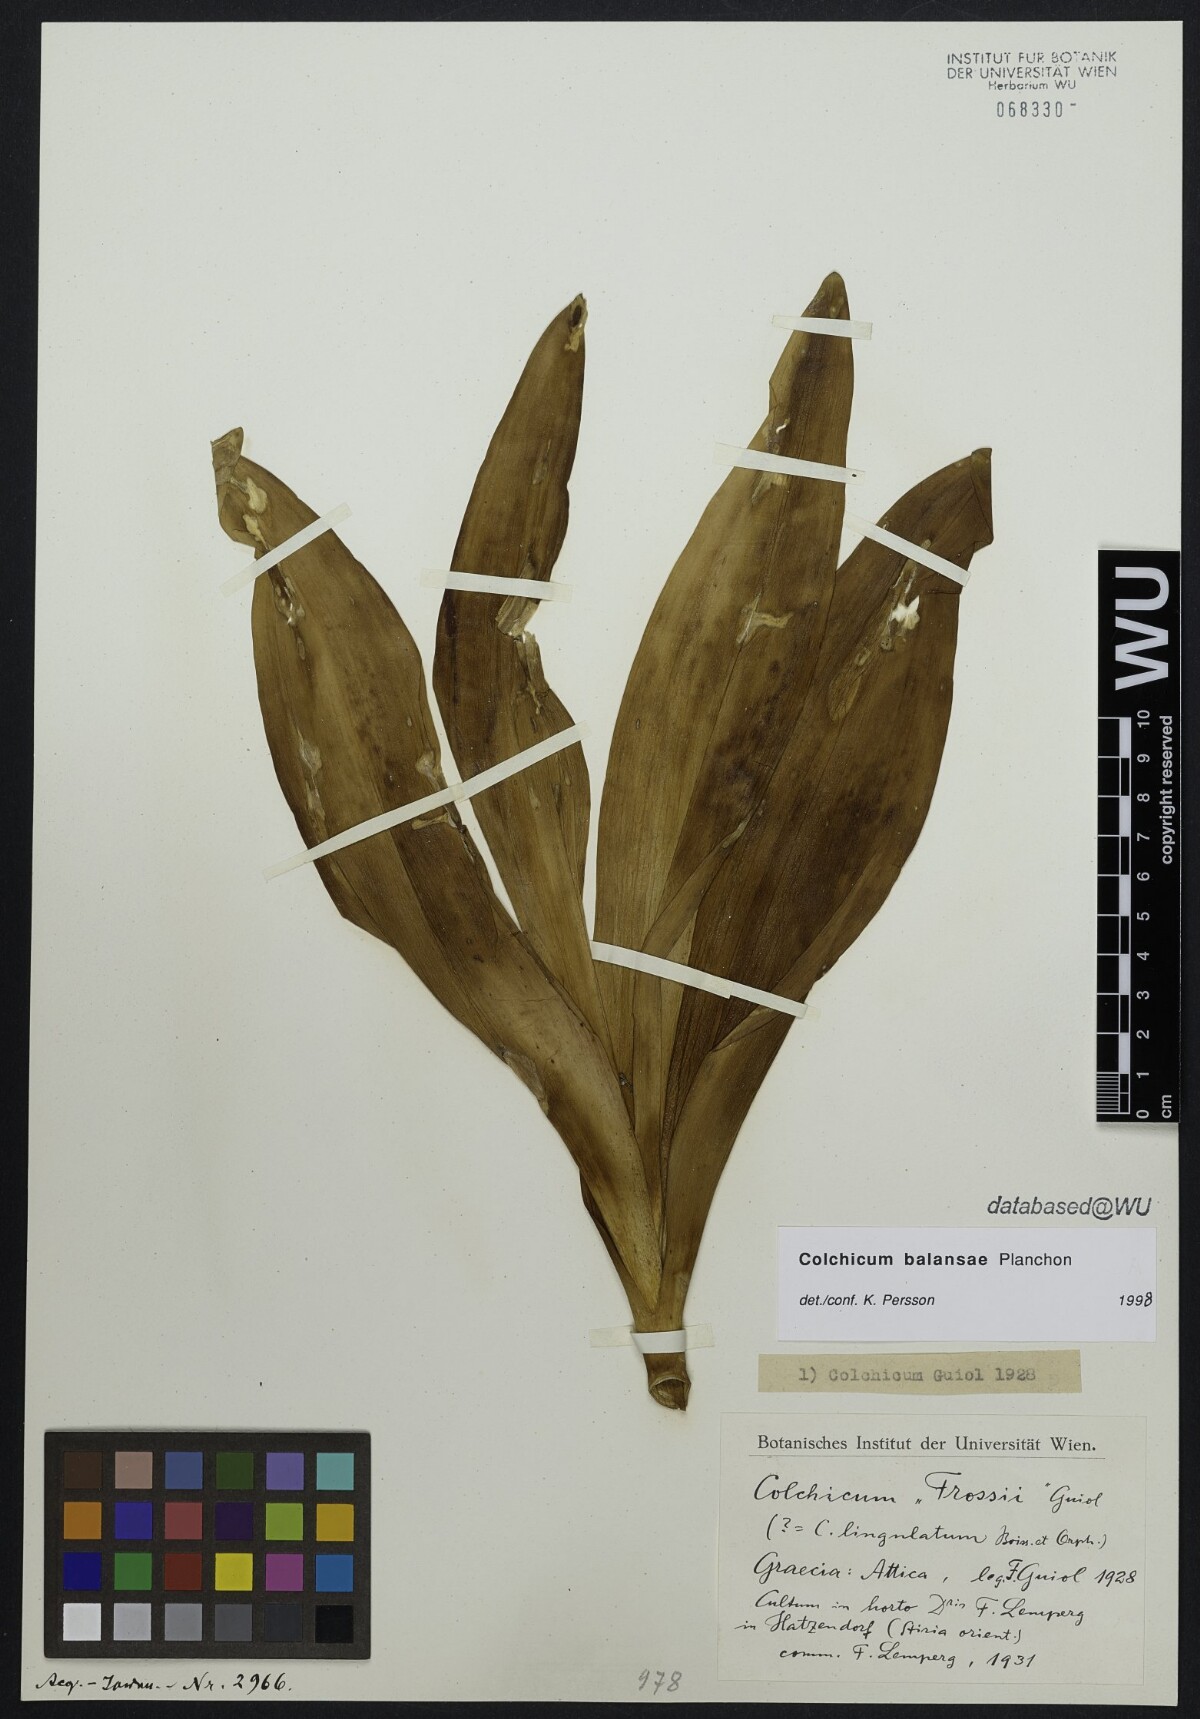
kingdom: Plantae
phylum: Tracheophyta
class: Liliopsida
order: Liliales
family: Colchicaceae
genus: Colchicum
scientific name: Colchicum
